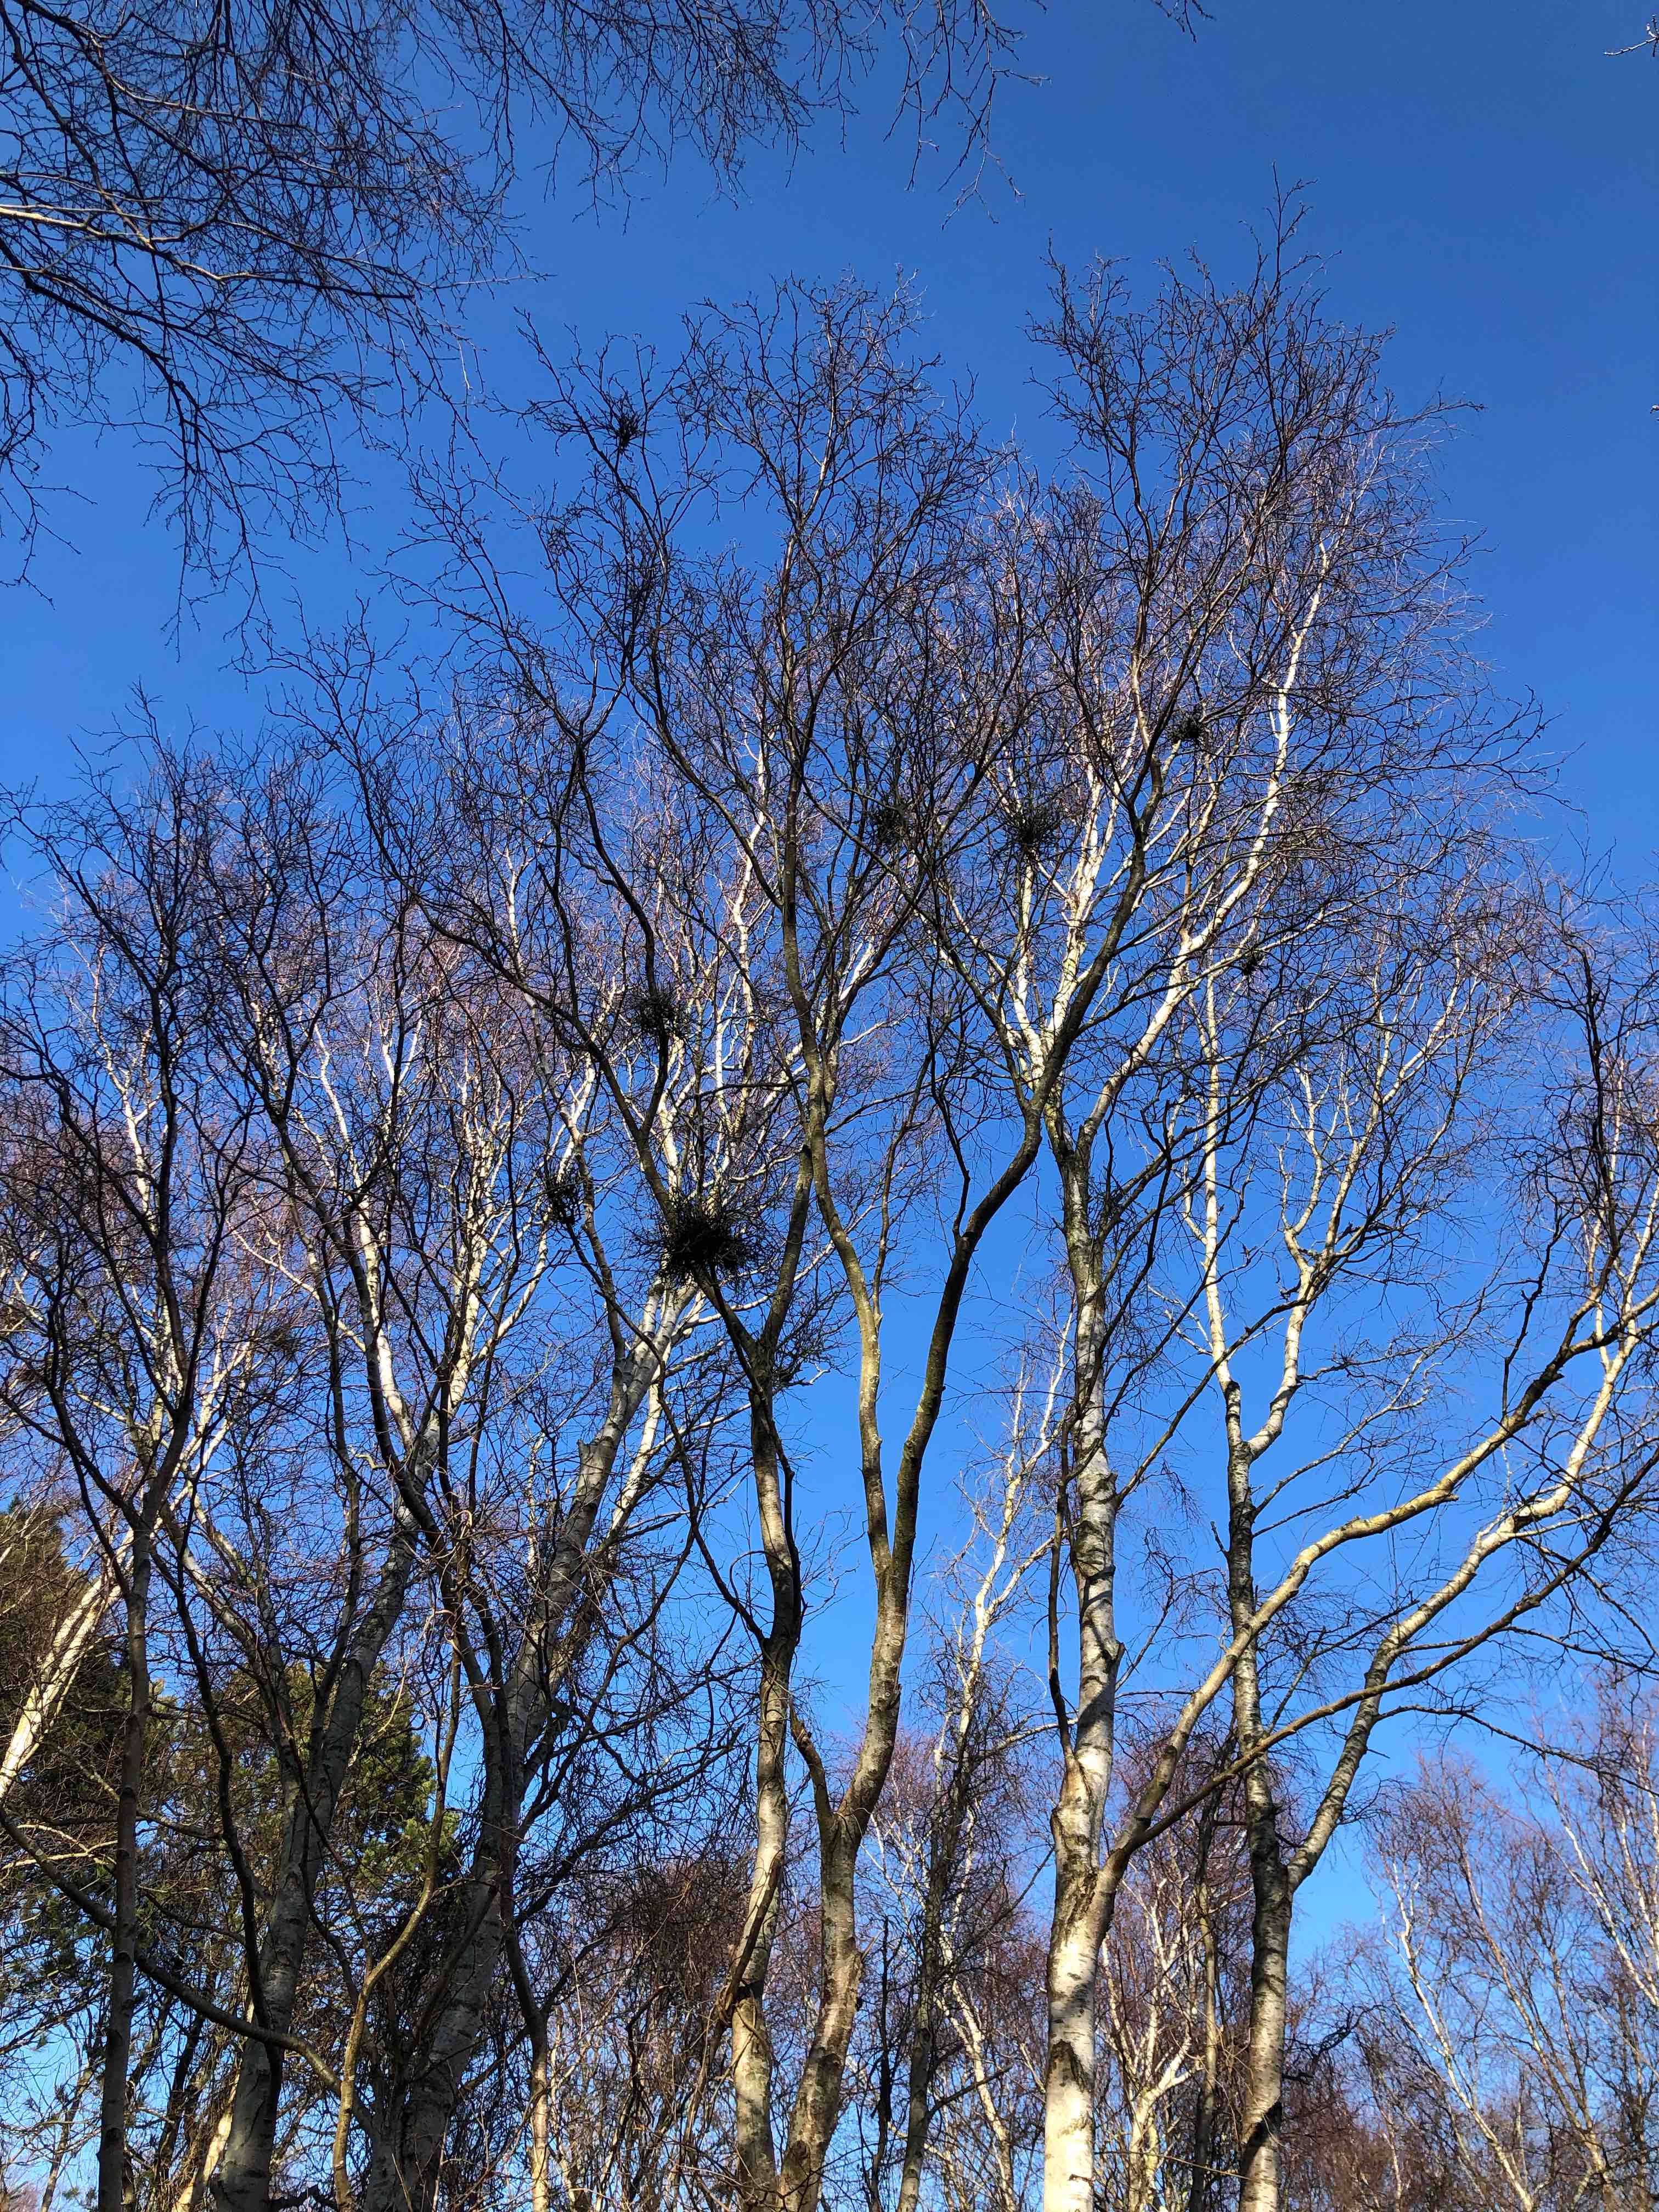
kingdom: Fungi
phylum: Ascomycota
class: Taphrinomycetes
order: Taphrinales
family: Taphrinaceae
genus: Taphrina
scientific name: Taphrina betulina
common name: hekse-sækdug
